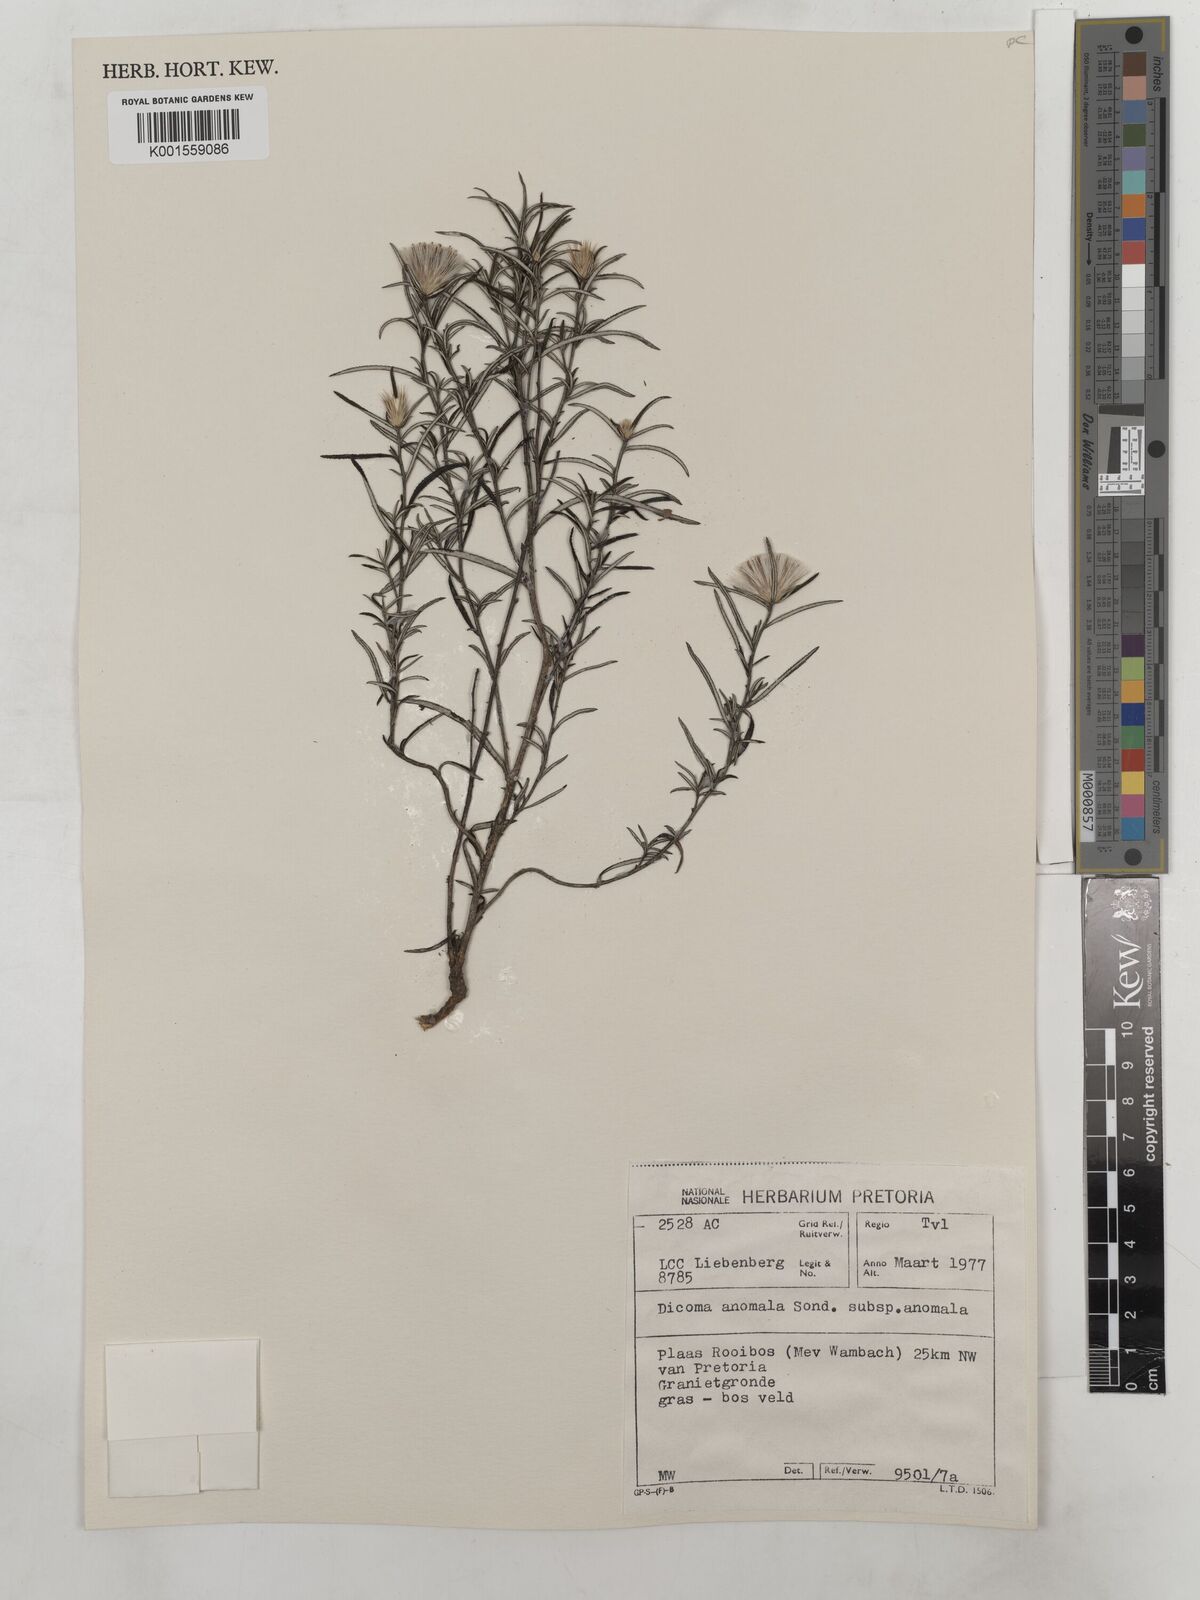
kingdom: Plantae
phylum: Tracheophyta
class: Magnoliopsida
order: Asterales
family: Asteraceae
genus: Dicoma
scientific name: Dicoma anomala
